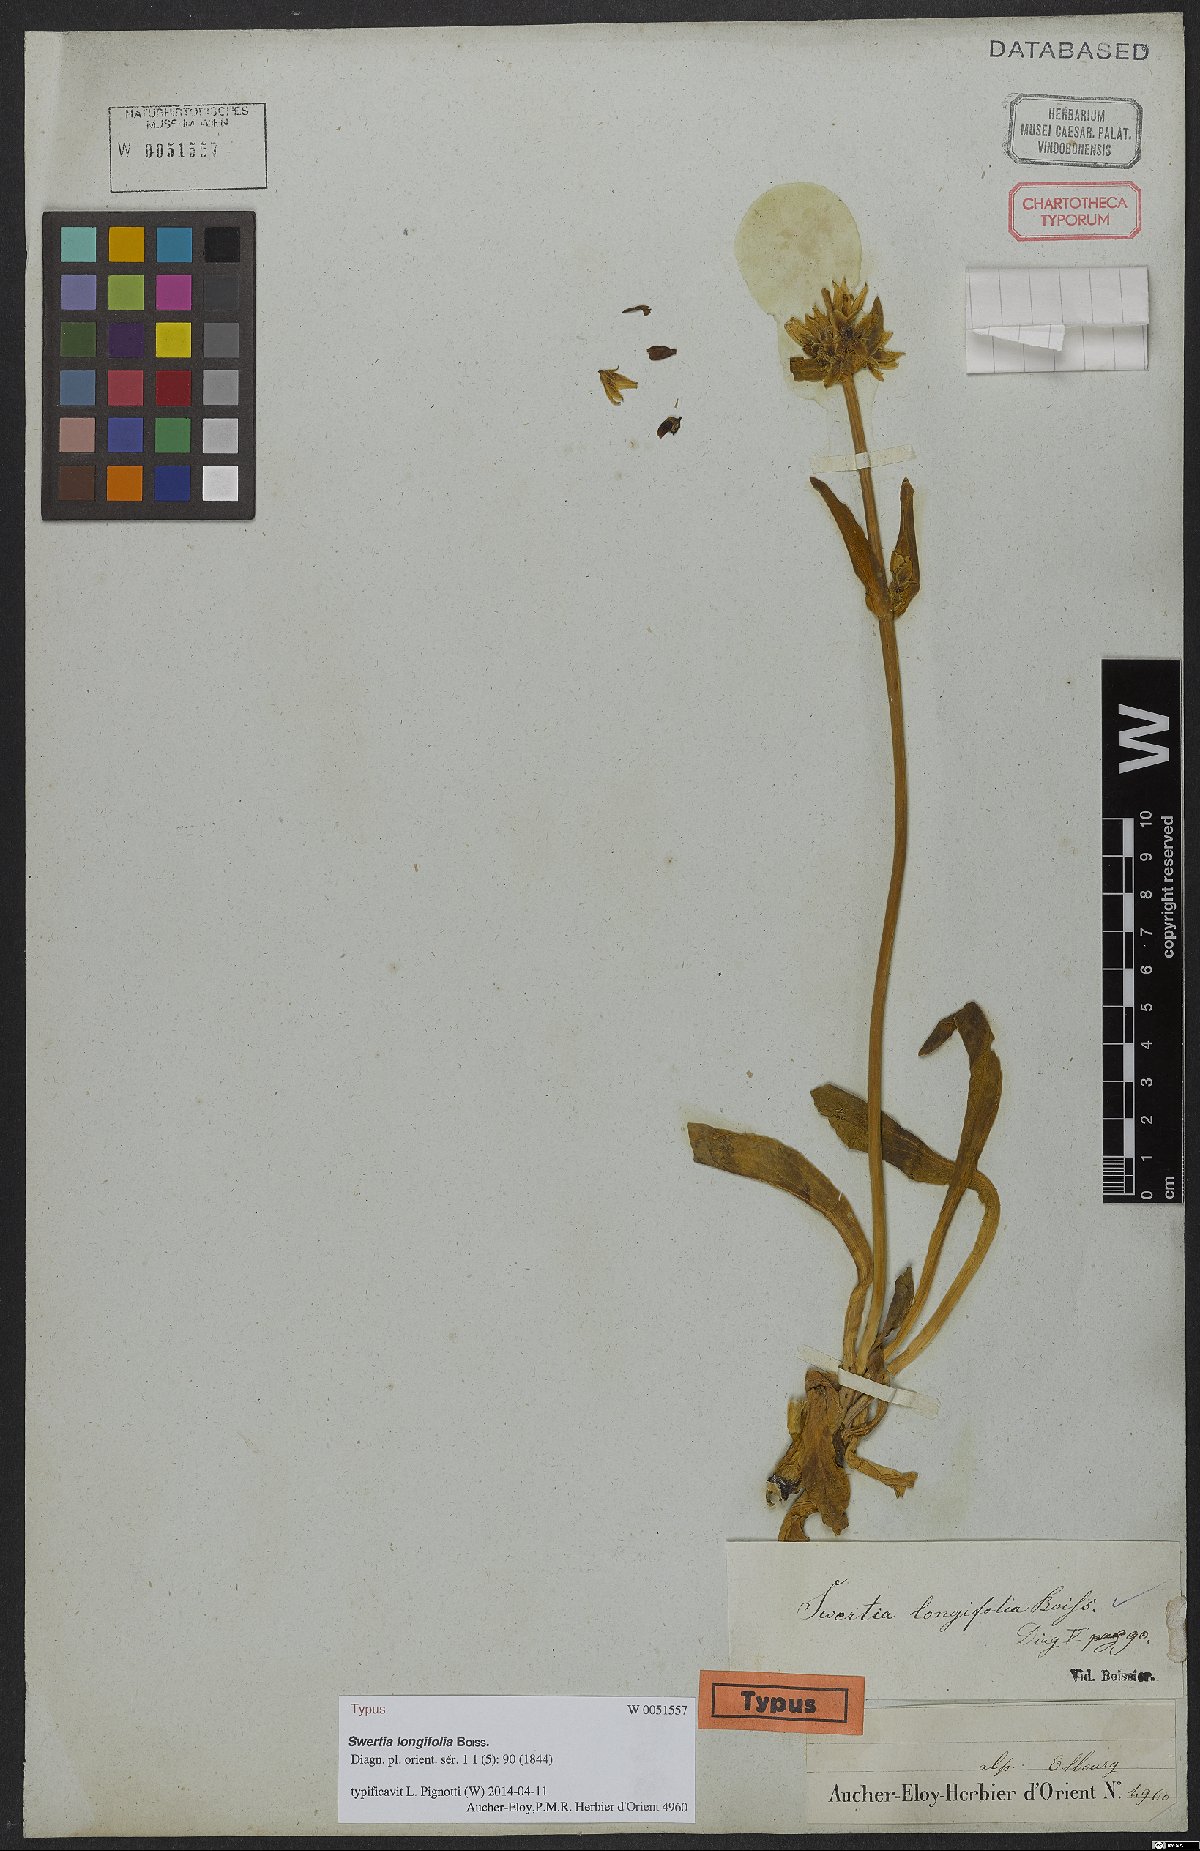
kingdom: Plantae
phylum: Tracheophyta
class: Magnoliopsida
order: Gentianales
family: Gentianaceae
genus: Swertia
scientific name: Swertia longifolia
